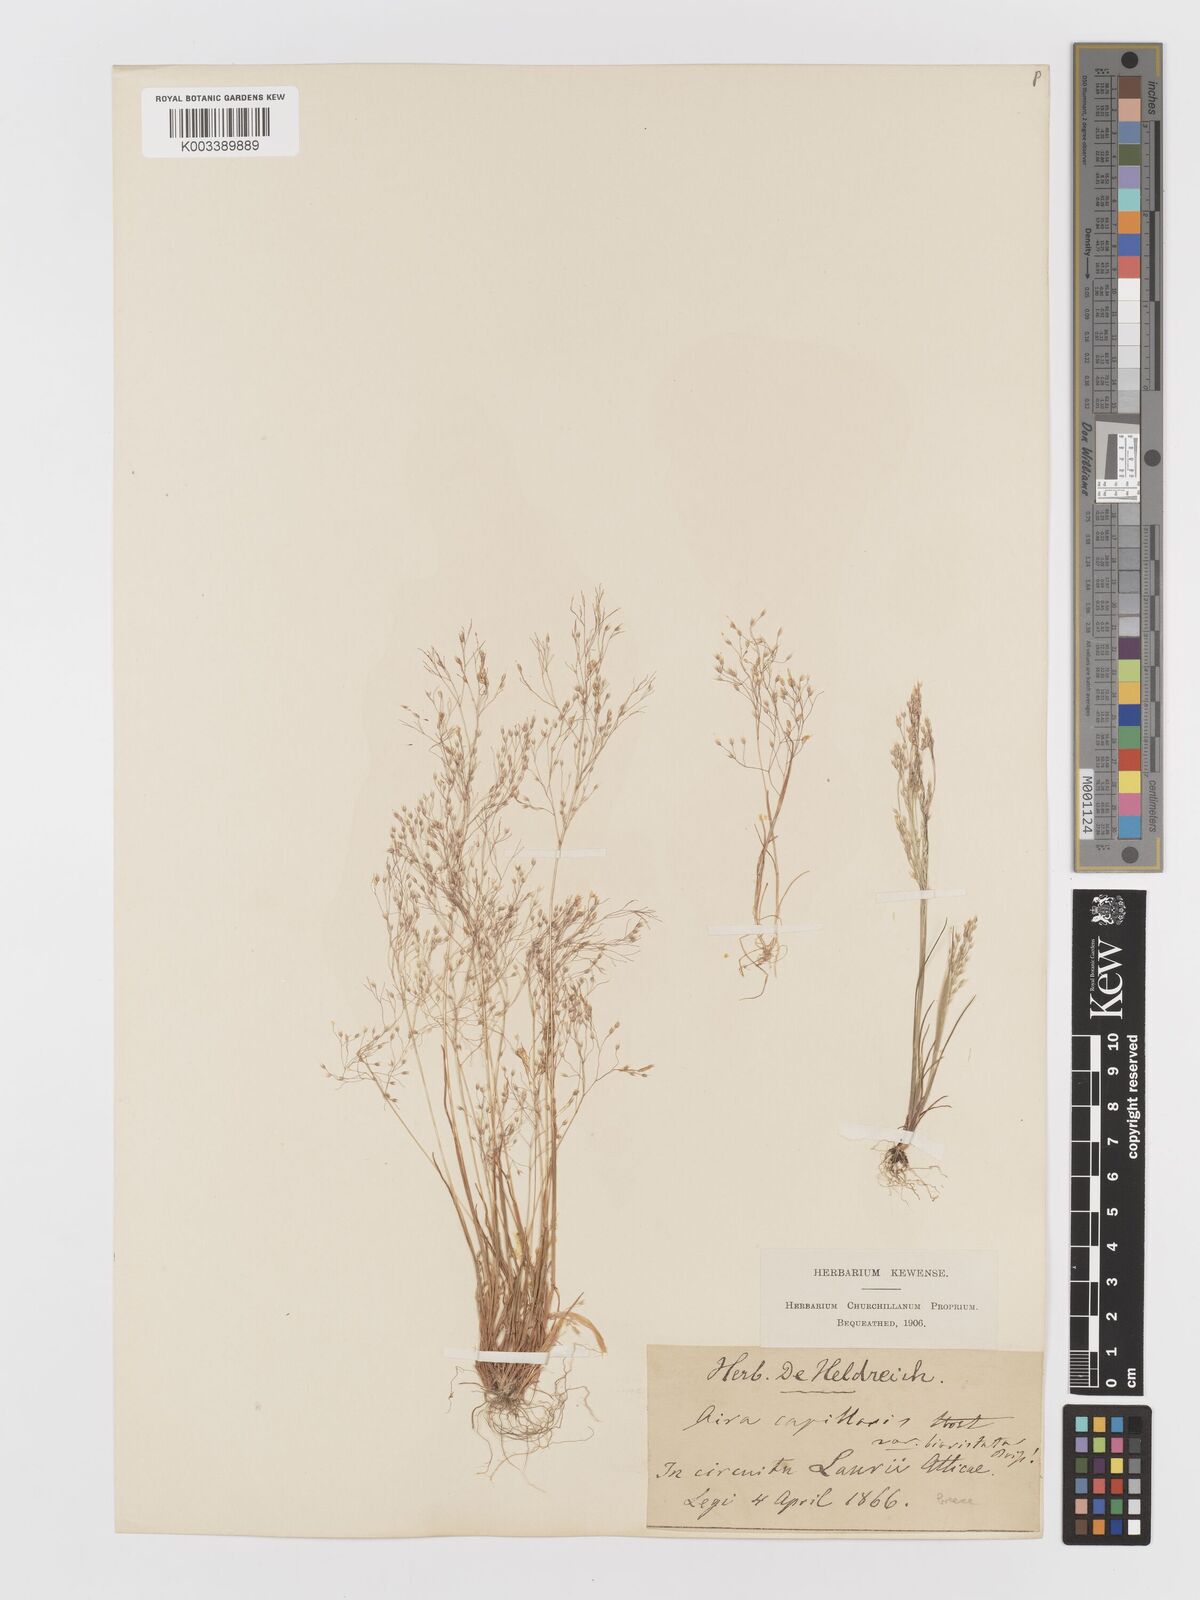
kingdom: Plantae
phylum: Tracheophyta
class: Liliopsida
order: Poales
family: Poaceae
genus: Aira
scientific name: Aira elegans
